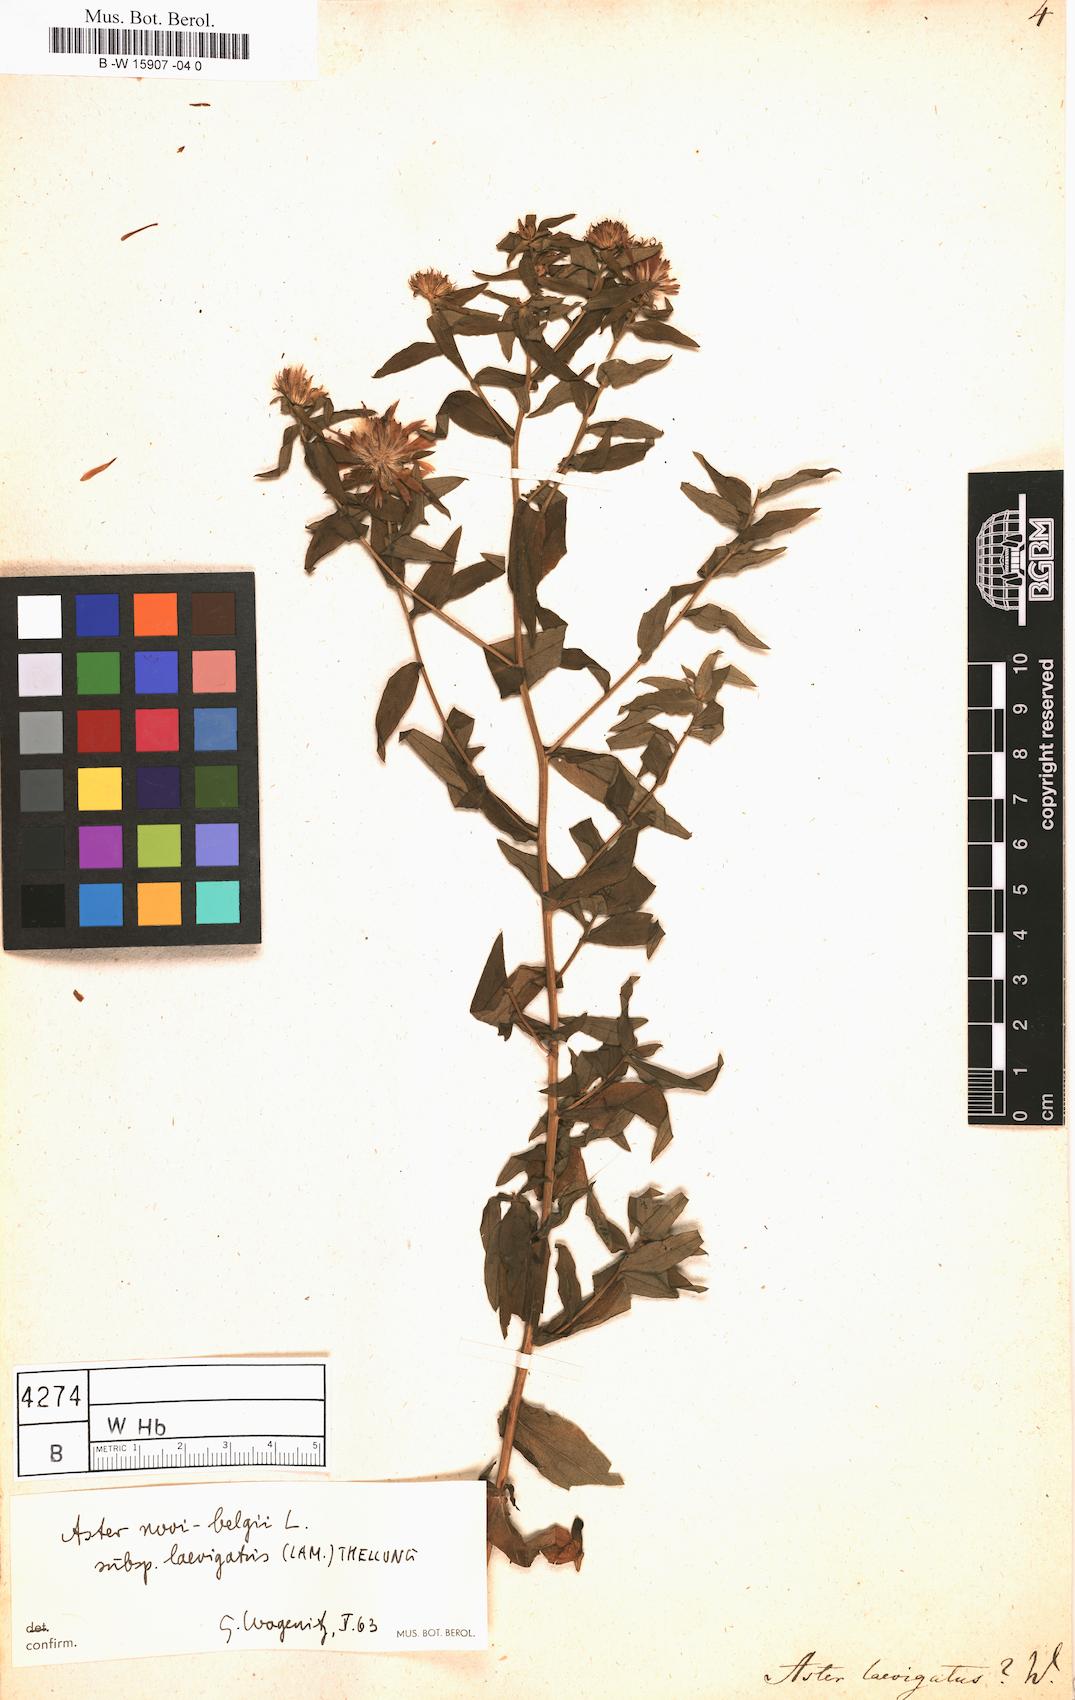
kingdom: Plantae
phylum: Tracheophyta
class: Magnoliopsida
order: Asterales
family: Asteraceae
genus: Symphyotrichum
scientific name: Symphyotrichum novi-belgii
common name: Michaelmas daisy
